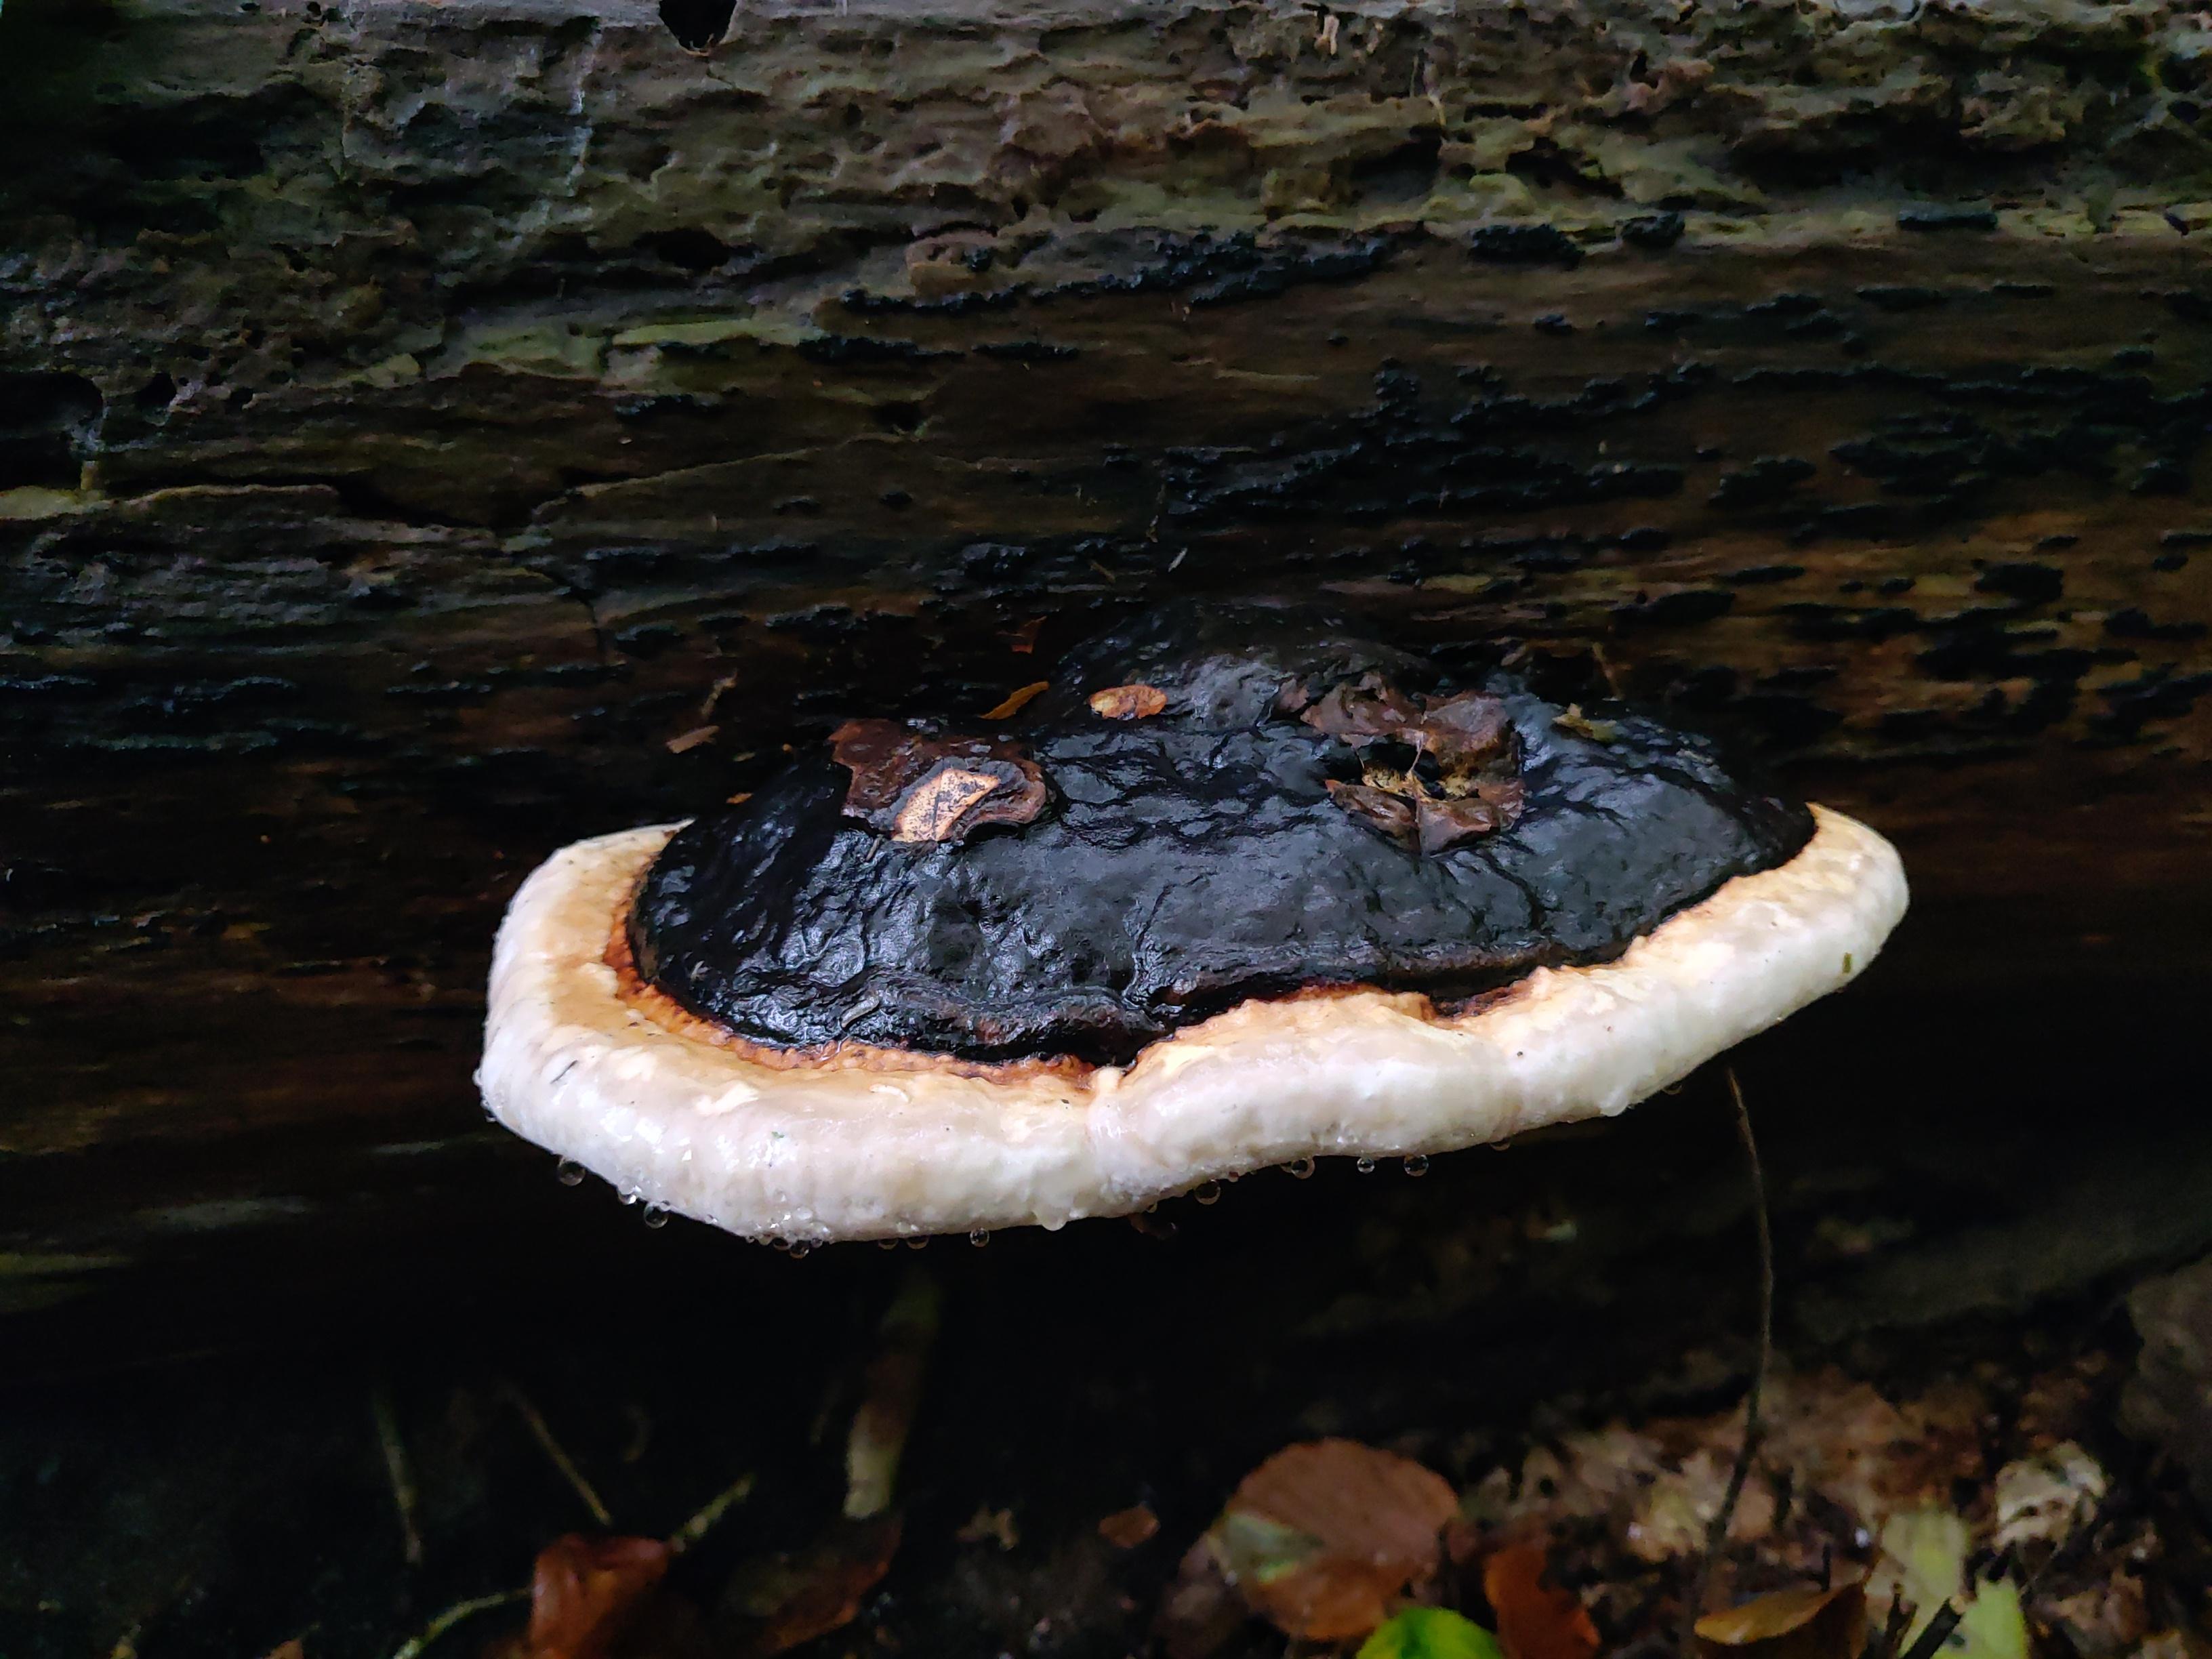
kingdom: Fungi
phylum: Basidiomycota
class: Agaricomycetes
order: Polyporales
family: Fomitopsidaceae
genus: Fomitopsis
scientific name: Fomitopsis pinicola
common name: randbæltet hovporesvamp
